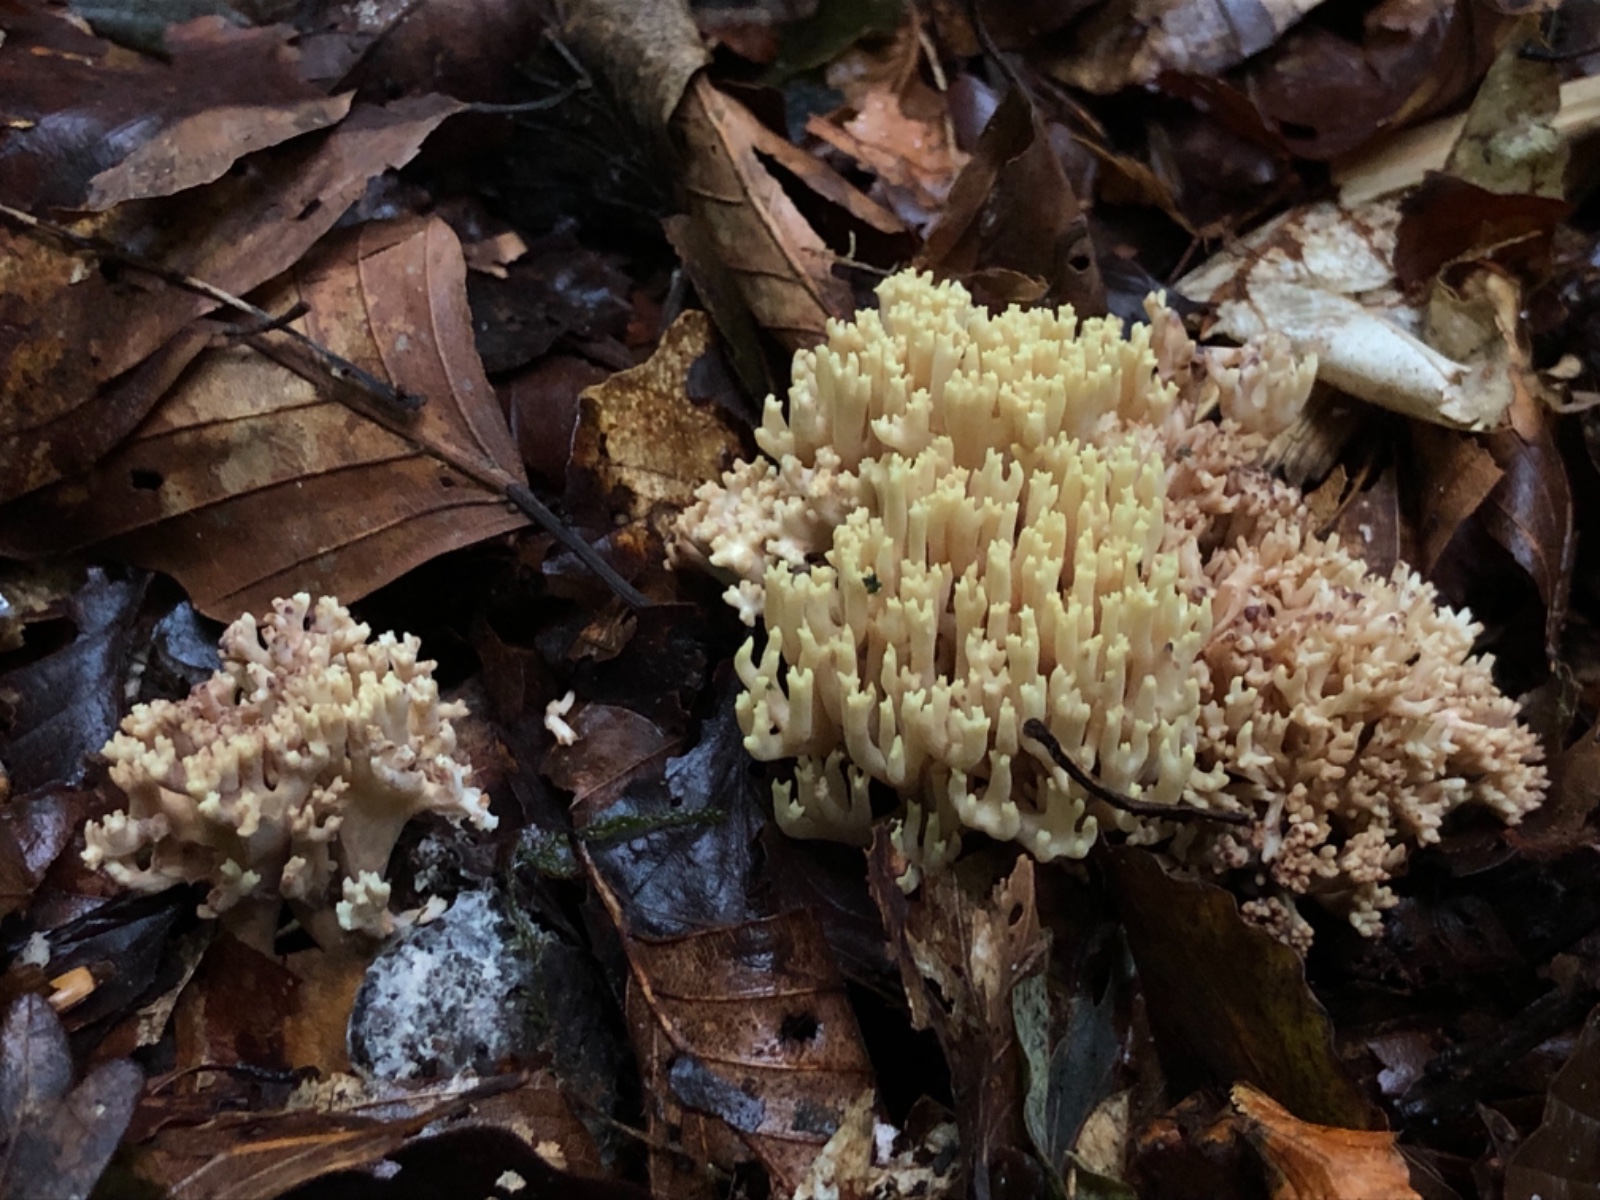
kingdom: Fungi
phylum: Basidiomycota
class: Agaricomycetes
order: Gomphales
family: Gomphaceae
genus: Ramaria
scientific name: Ramaria stricta
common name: rank koralsvamp
